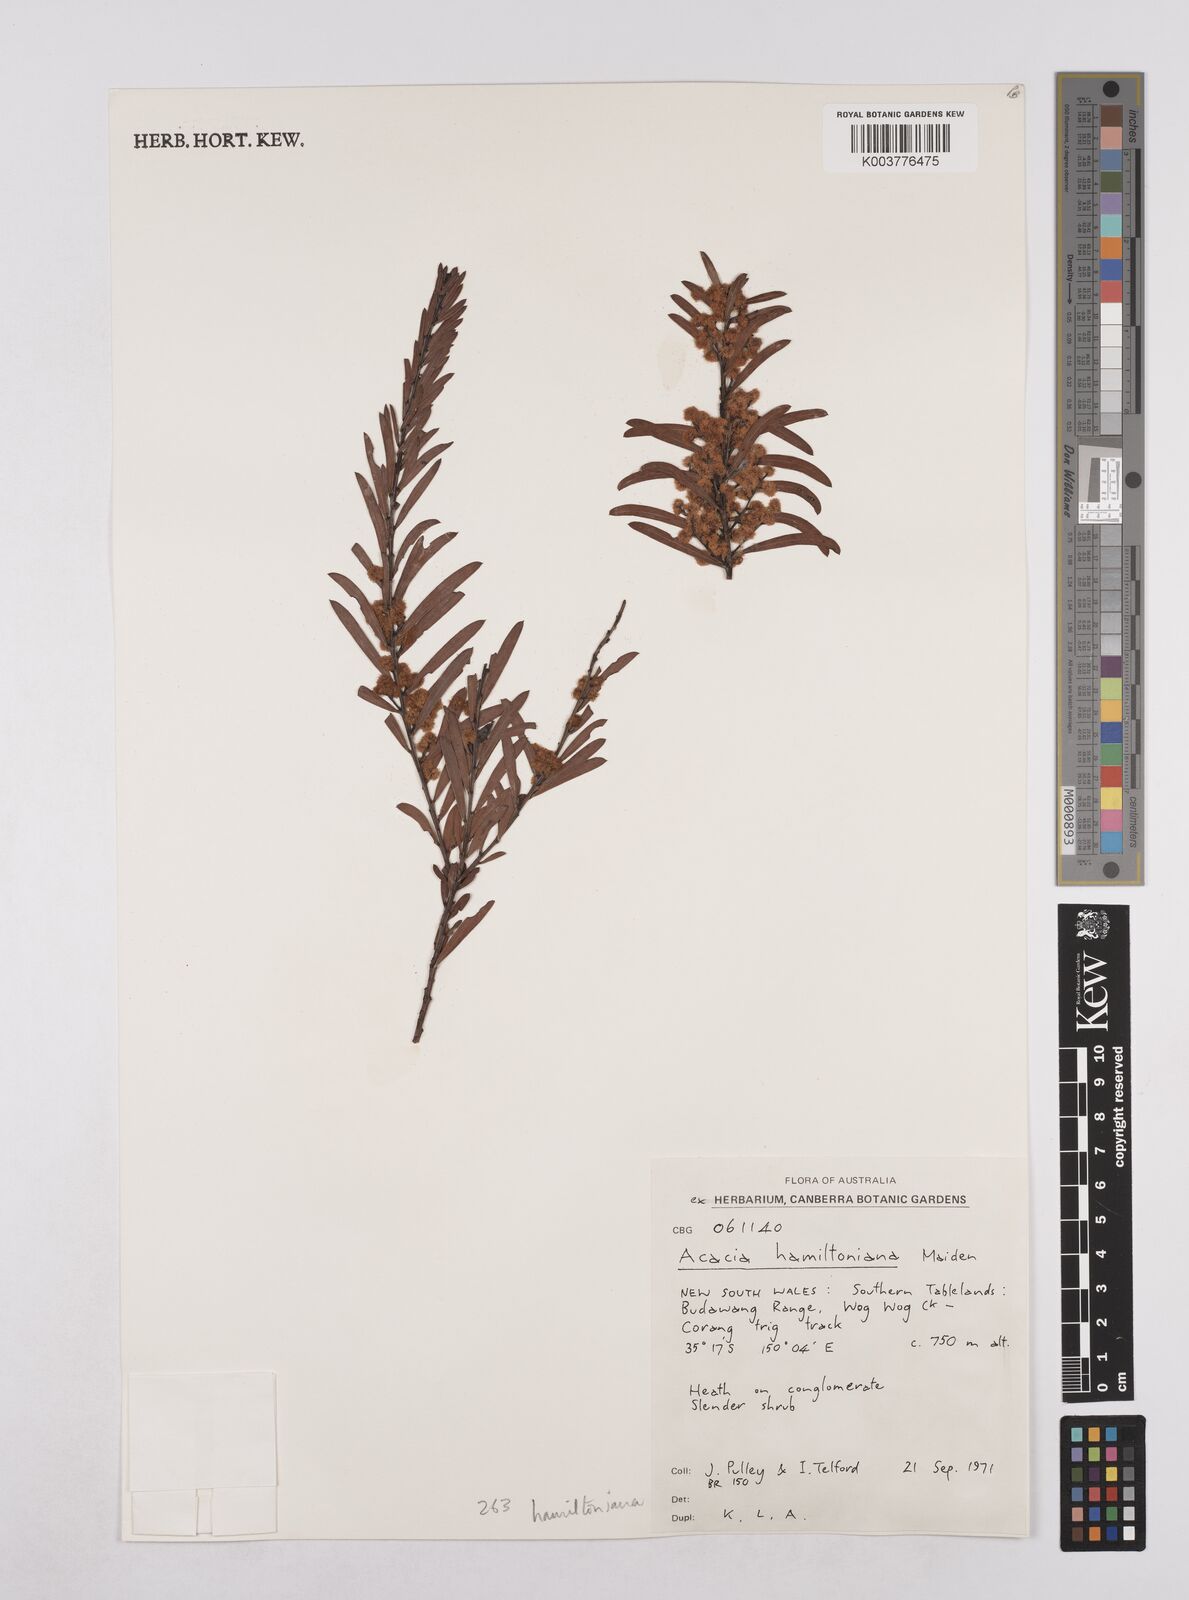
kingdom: Plantae
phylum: Tracheophyta
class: Magnoliopsida
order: Fabales
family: Fabaceae
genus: Acacia
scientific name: Acacia hamiltoniana
